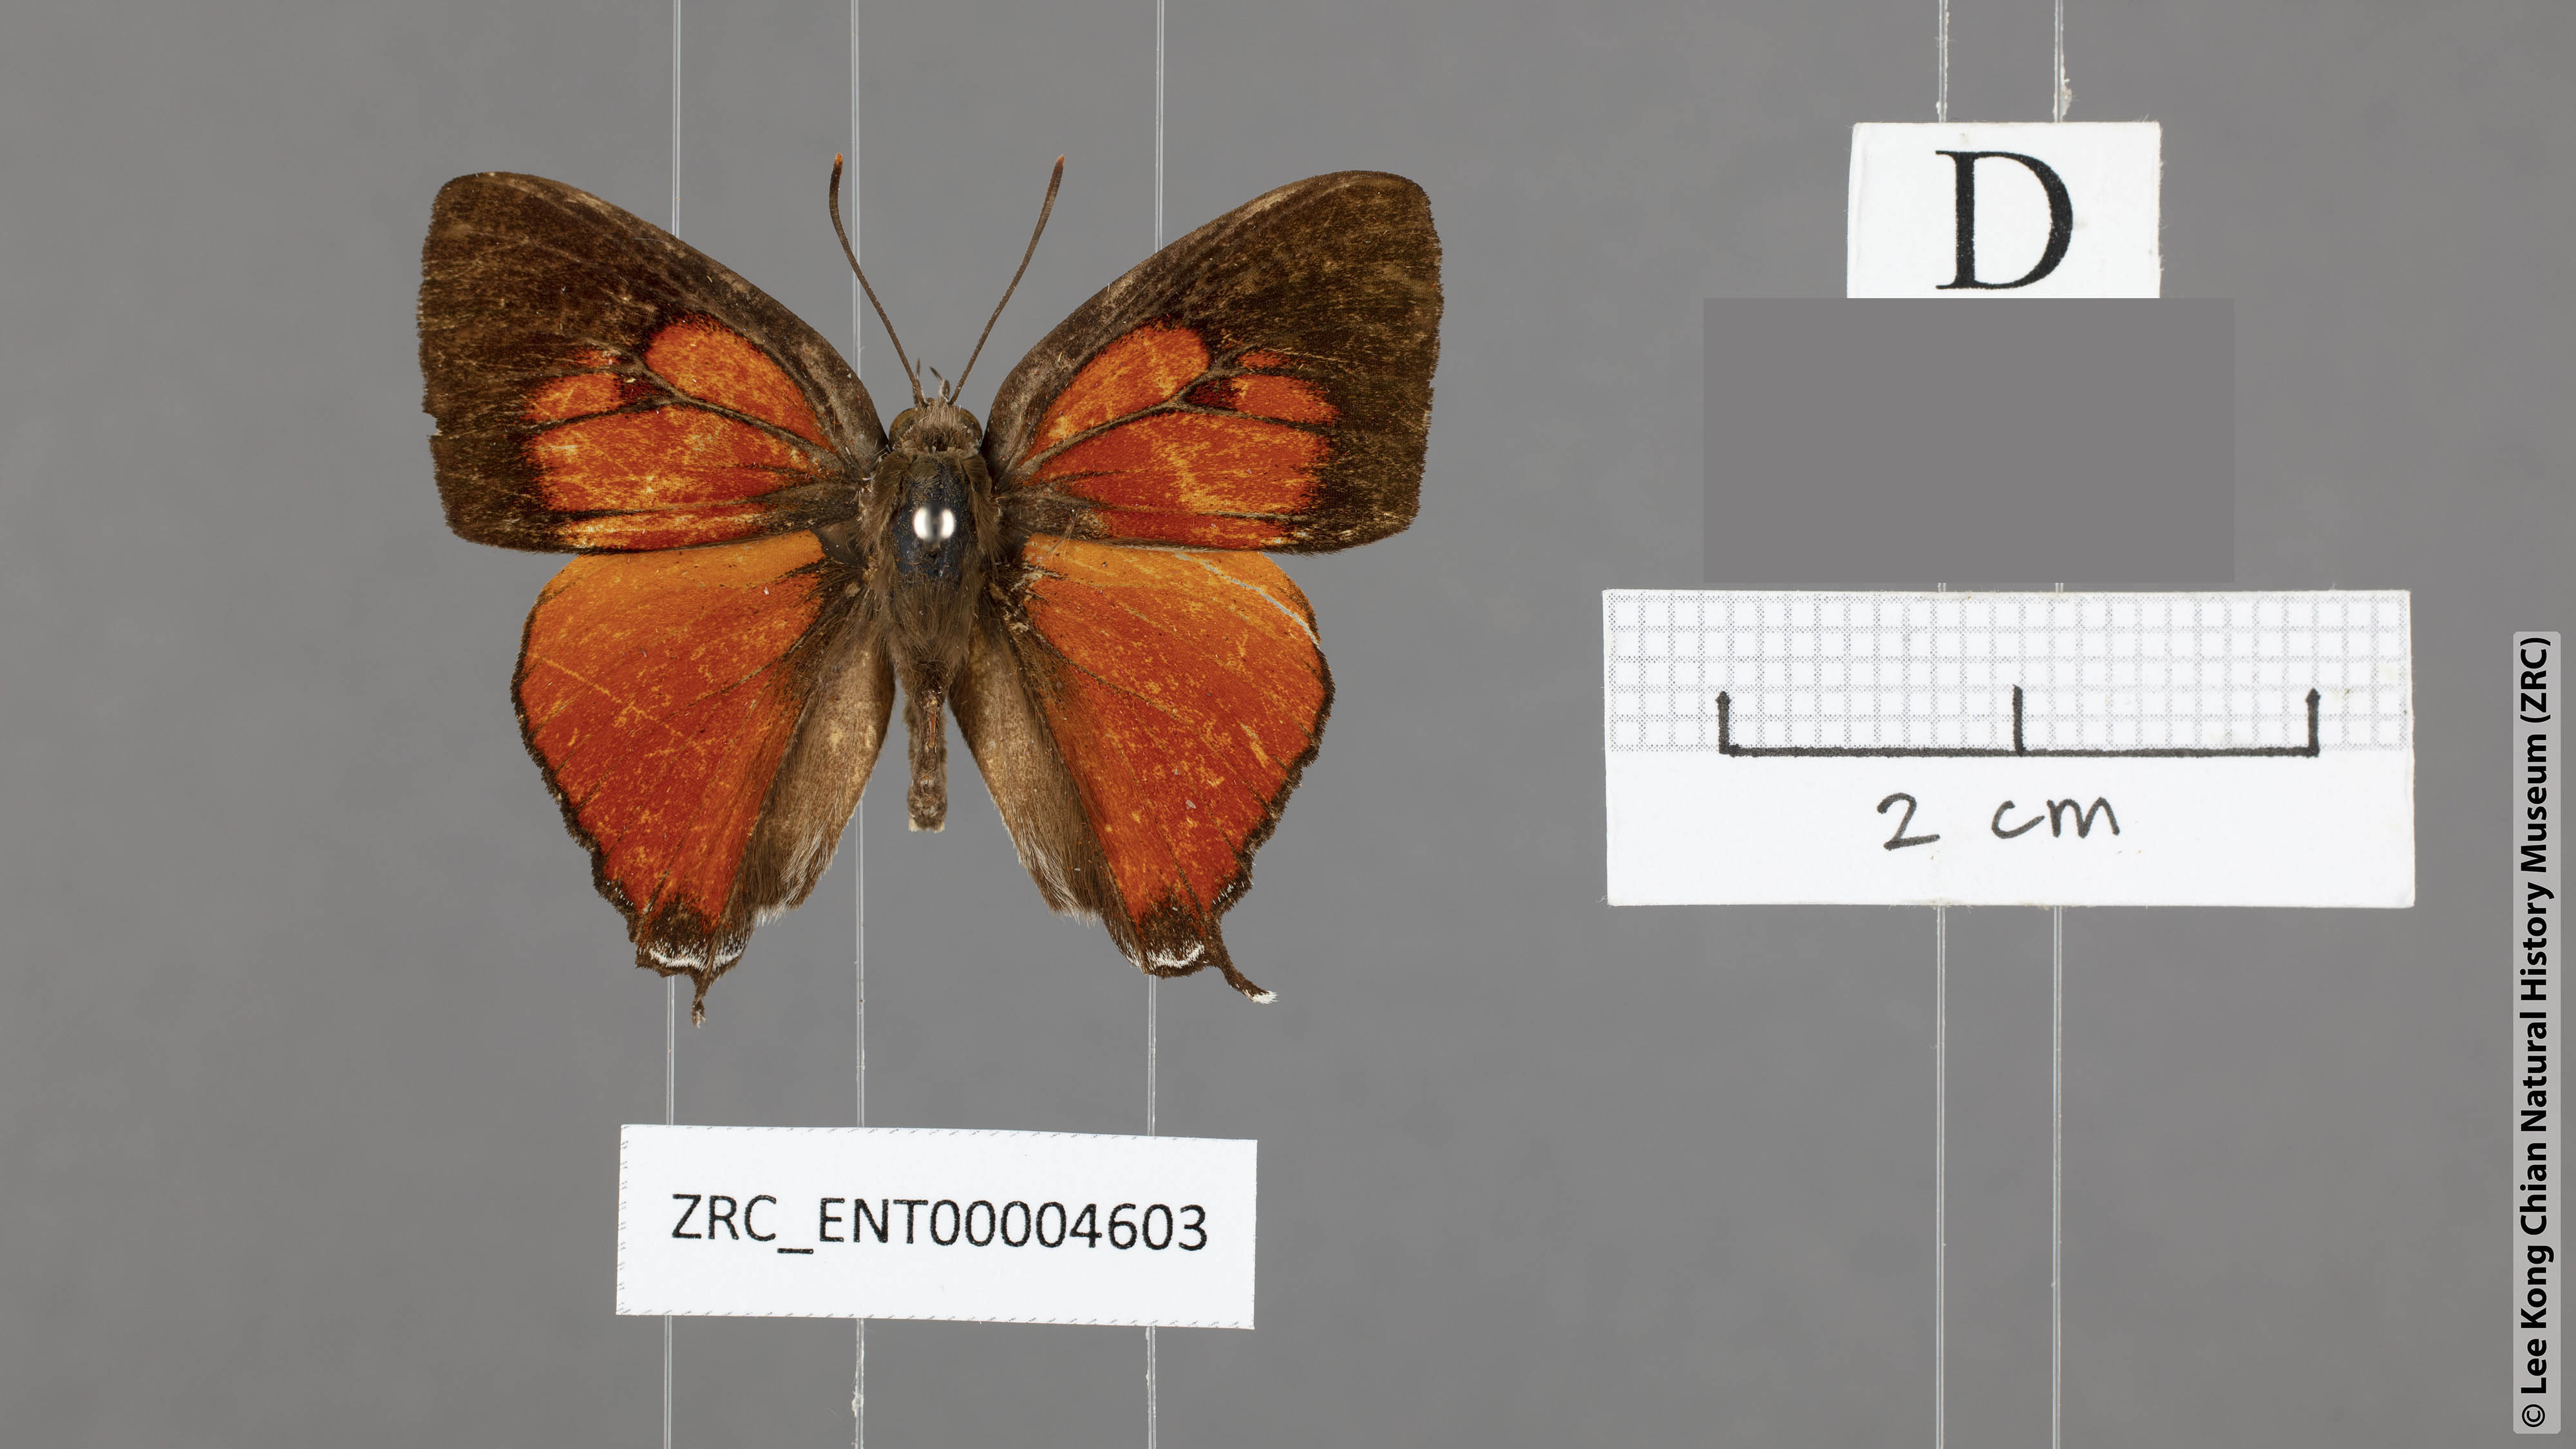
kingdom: Animalia
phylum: Arthropoda
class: Insecta
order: Lepidoptera
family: Lycaenidae
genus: Thamala
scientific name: Thamala marciana
